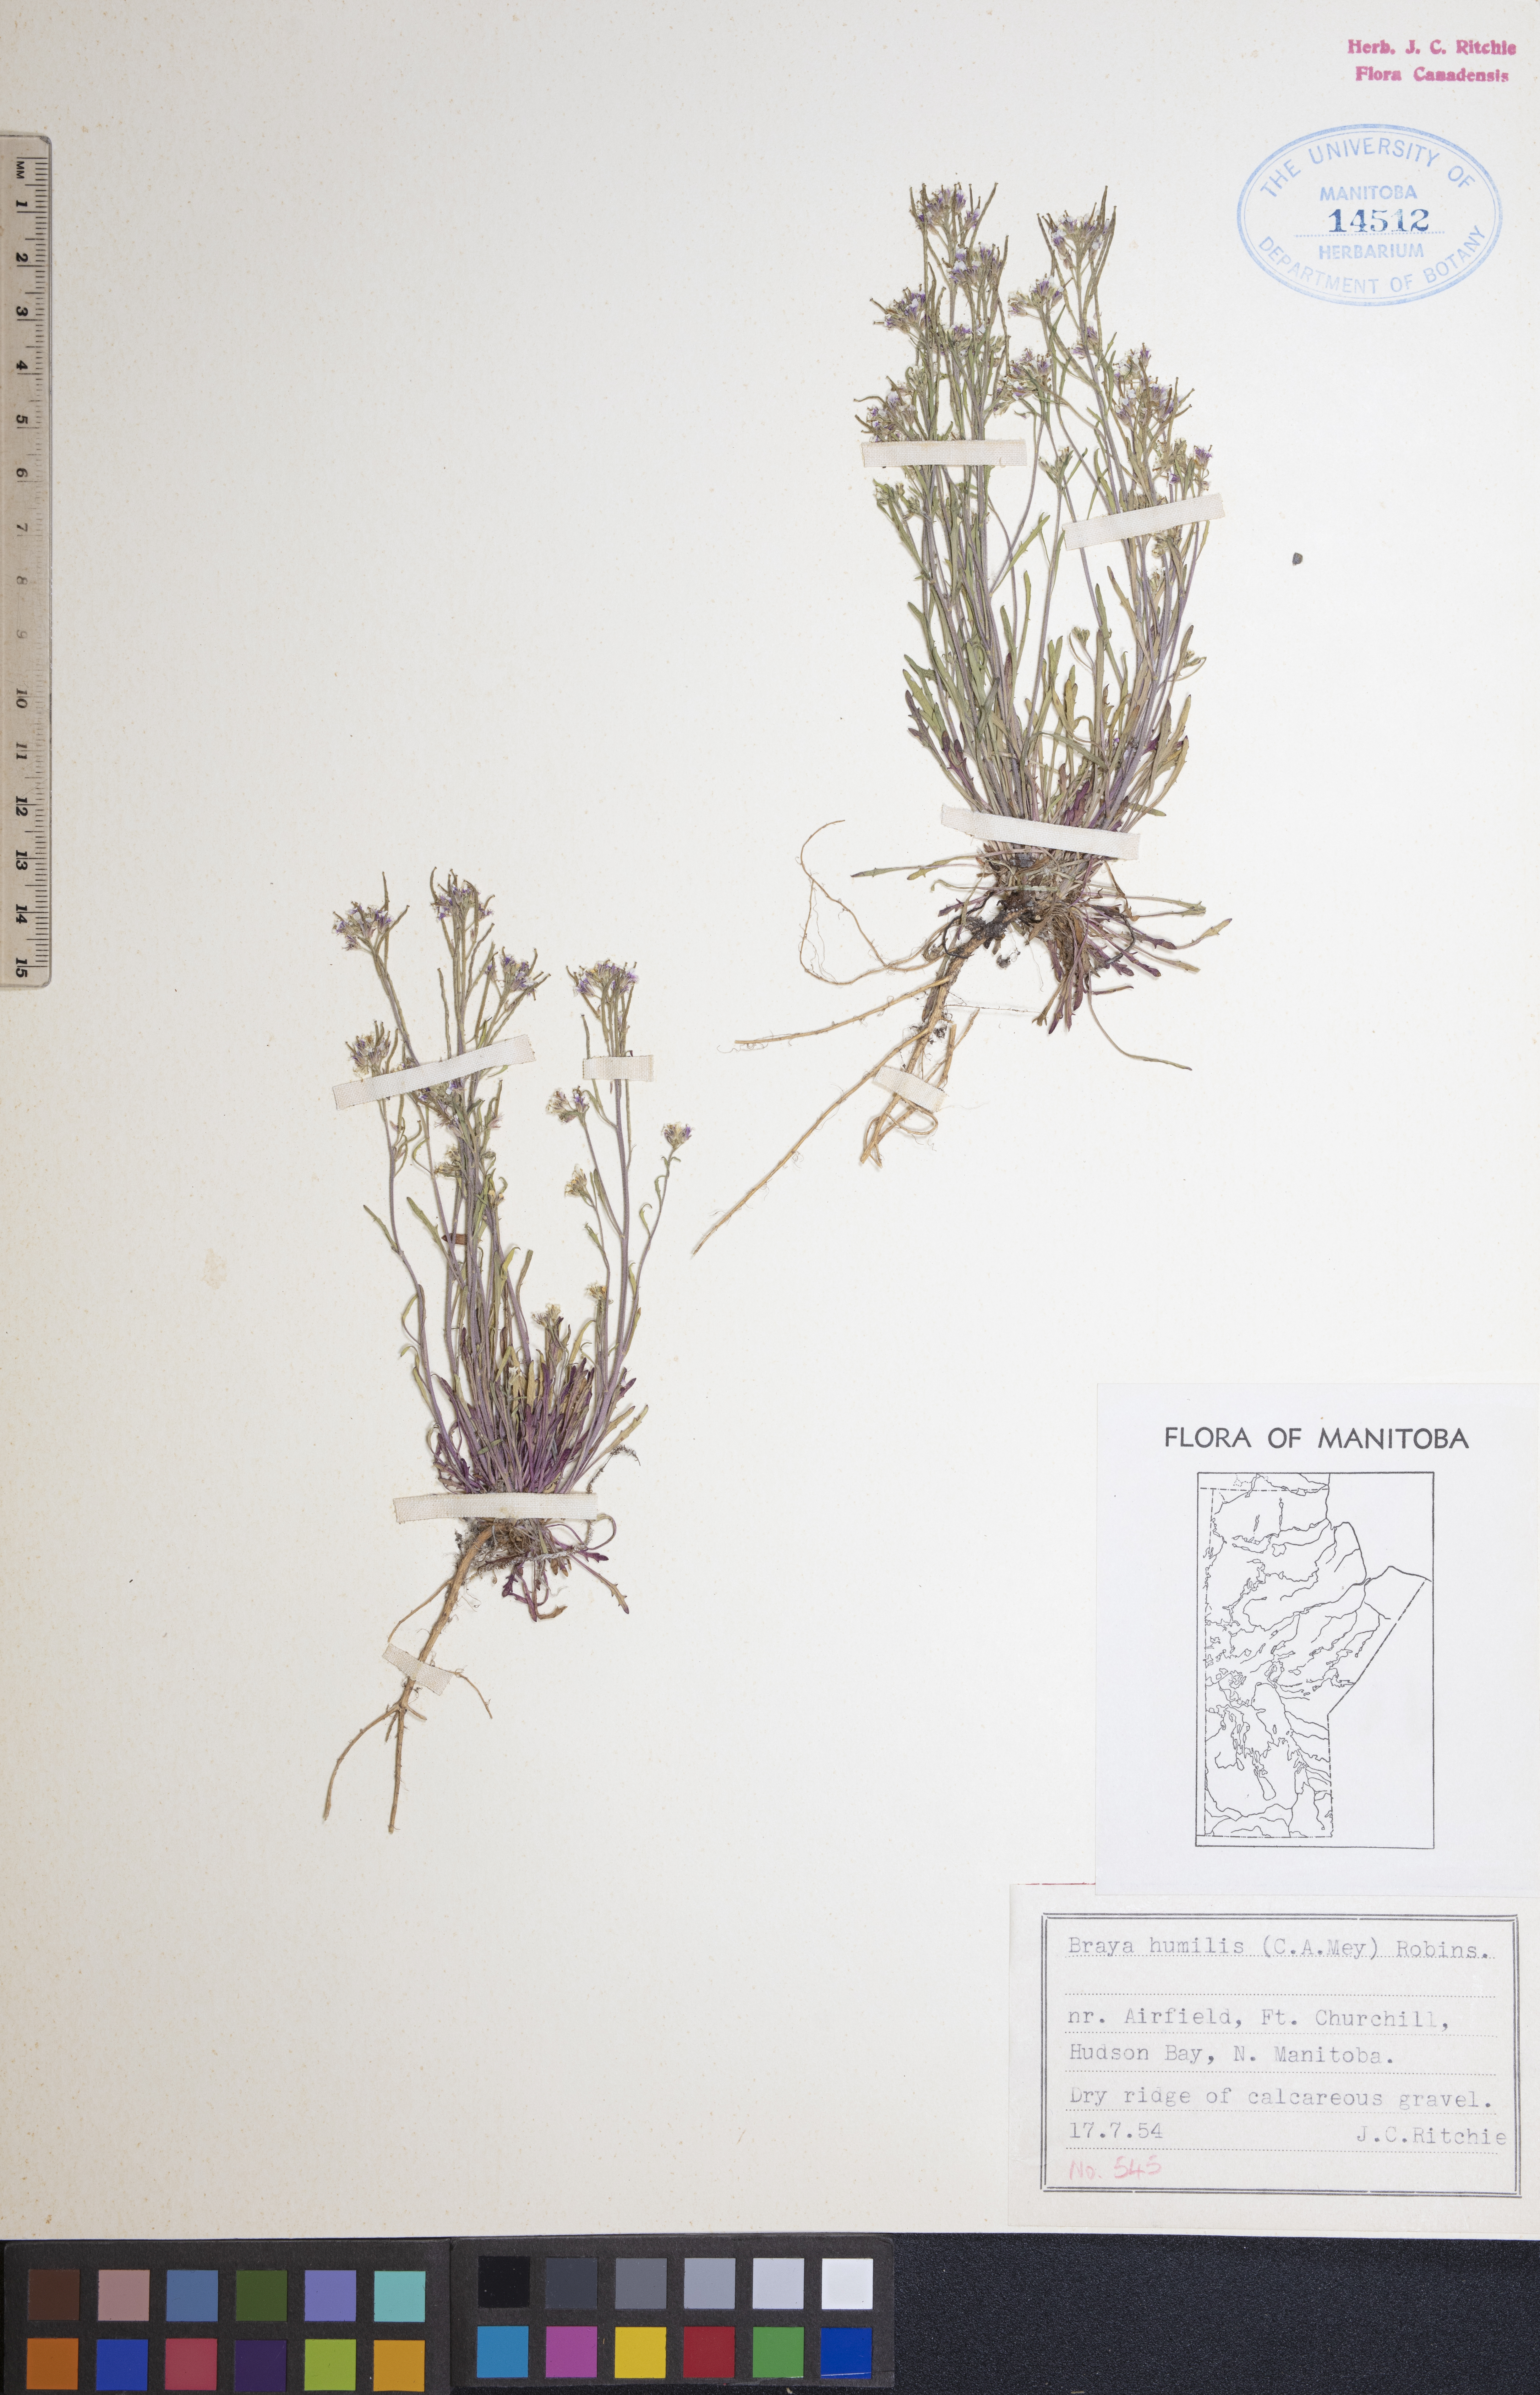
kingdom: Plantae
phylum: Tracheophyta
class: Magnoliopsida
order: Brassicales
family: Brassicaceae
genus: Braya
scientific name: Braya humilis
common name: Alpine northern rockcress
